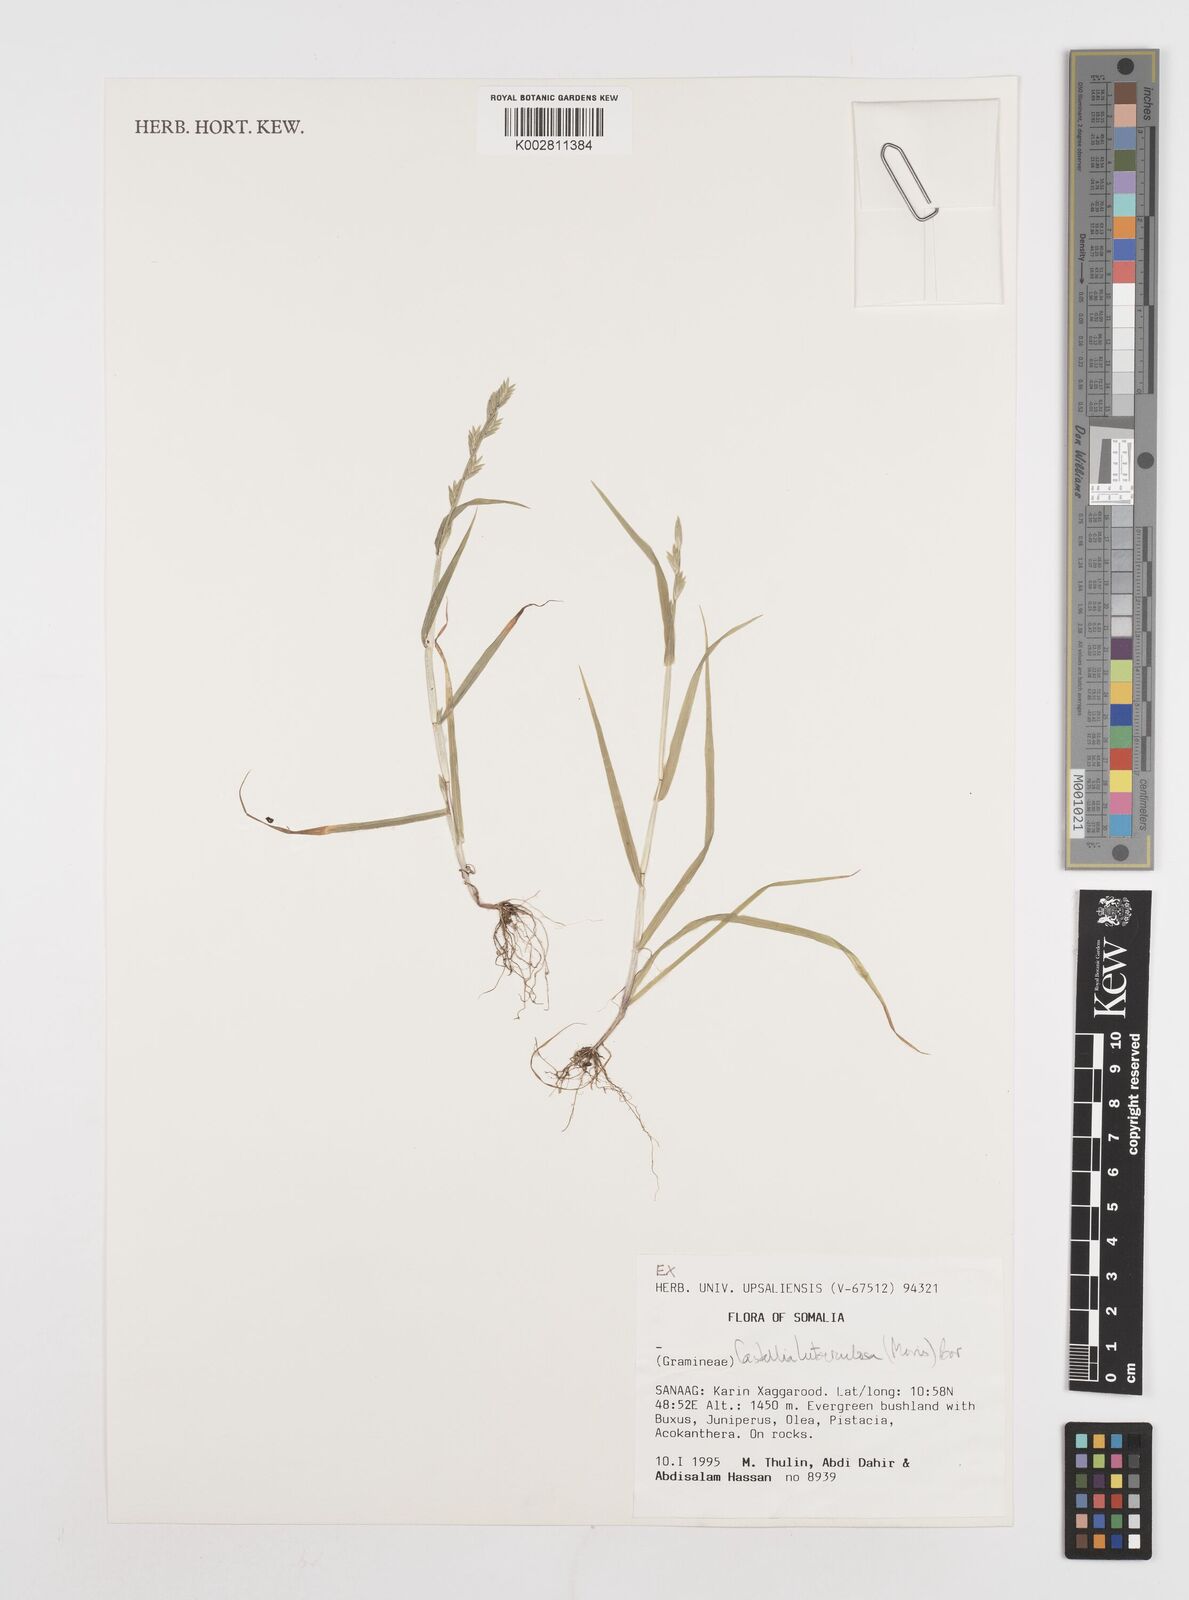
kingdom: Plantae
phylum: Tracheophyta
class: Liliopsida
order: Poales
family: Poaceae
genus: Castellia
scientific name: Castellia tuberculosa
